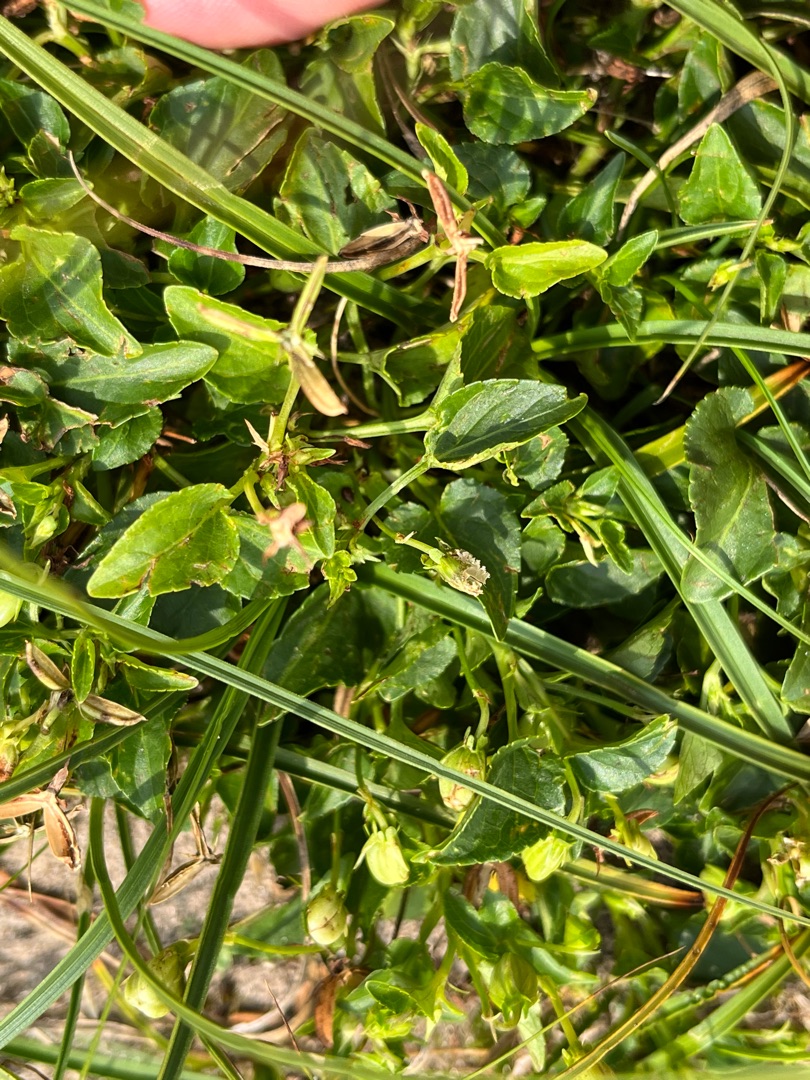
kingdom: Plantae
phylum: Tracheophyta
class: Magnoliopsida
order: Malpighiales
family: Violaceae
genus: Viola
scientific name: Viola canina
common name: Hunde-viol
